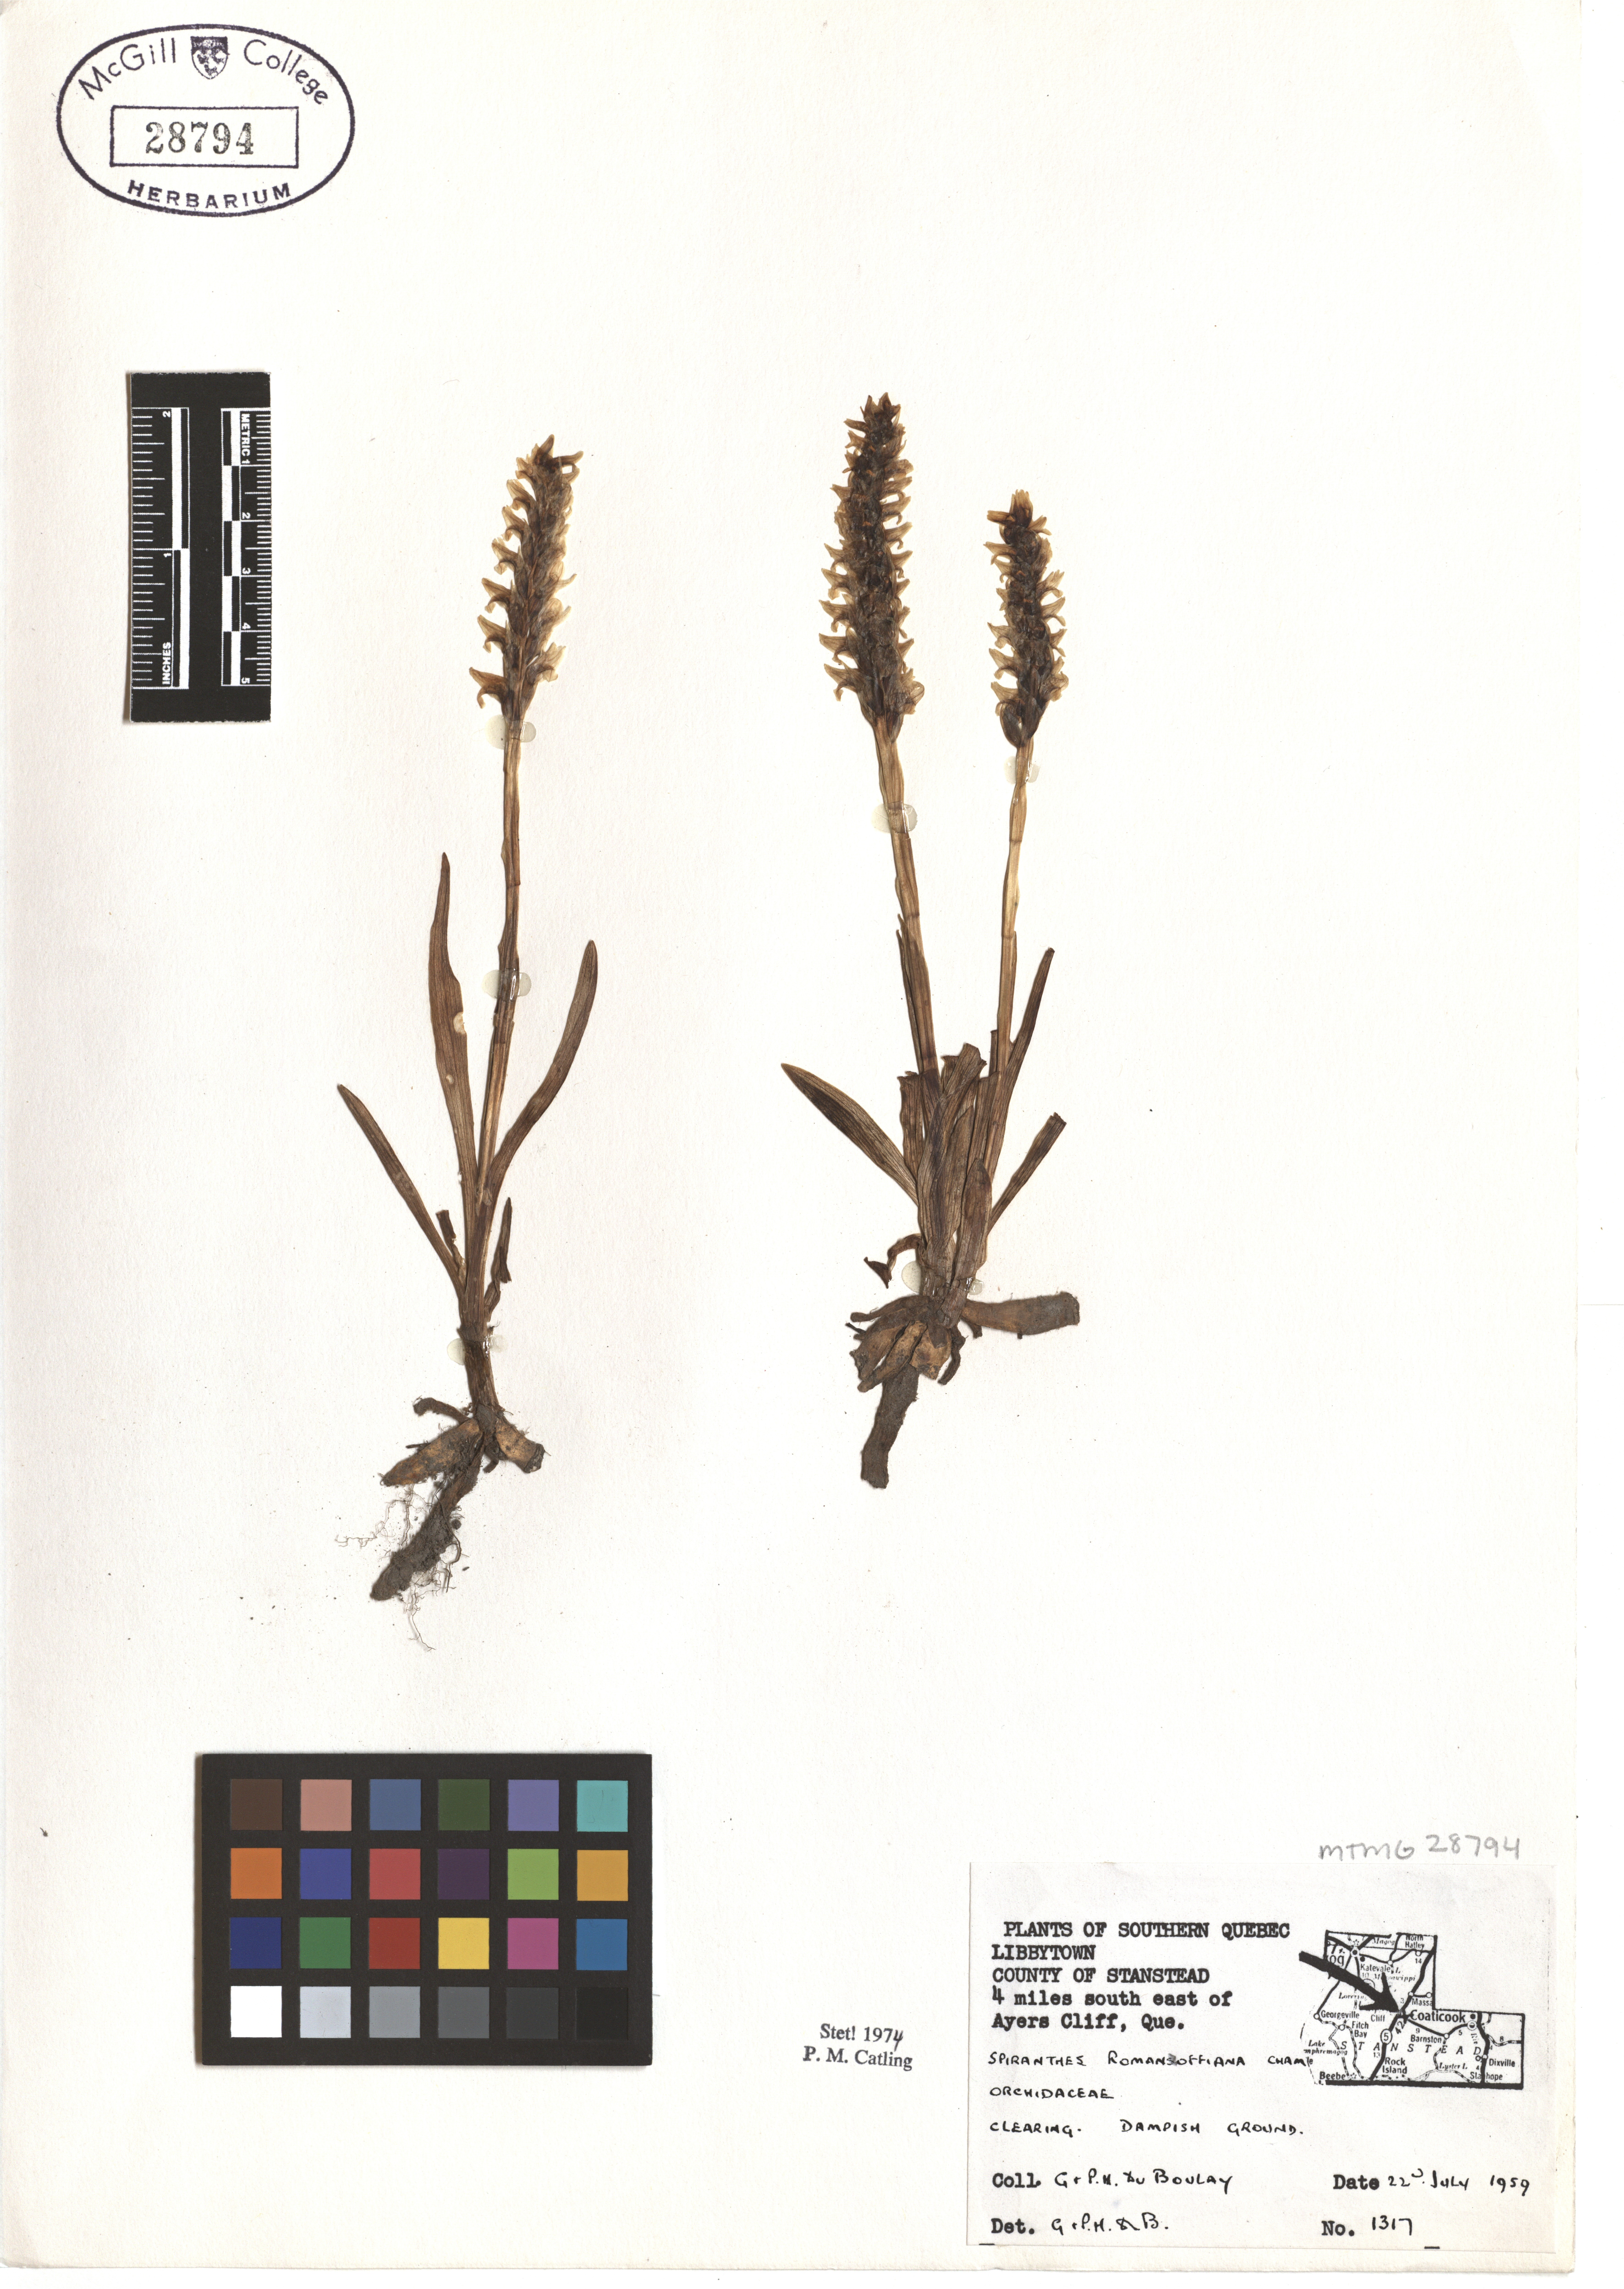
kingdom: Plantae
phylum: Tracheophyta
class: Liliopsida
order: Asparagales
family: Orchidaceae
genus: Spiranthes
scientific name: Spiranthes romanzoffiana
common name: Irish lady's-tresses
